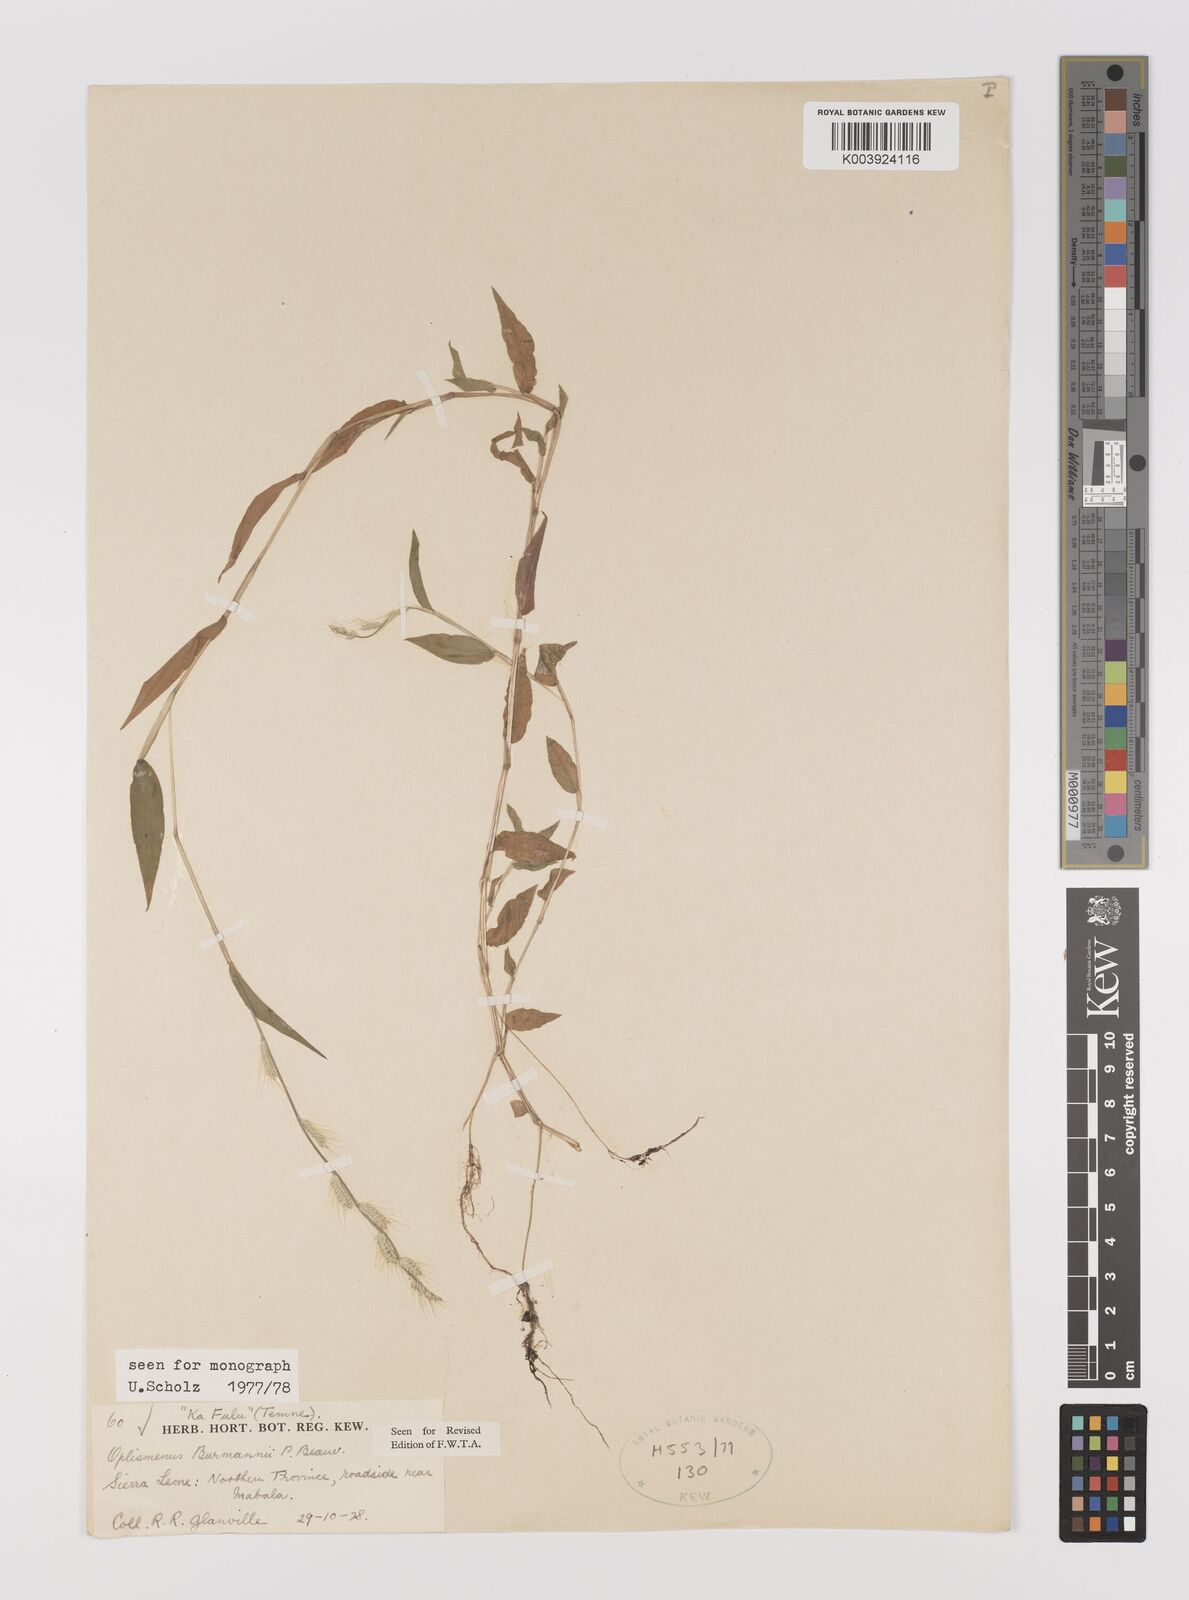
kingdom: Plantae
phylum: Tracheophyta
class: Liliopsida
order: Poales
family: Poaceae
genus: Oplismenus
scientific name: Oplismenus burmanni
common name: Burmann's basketgrass
